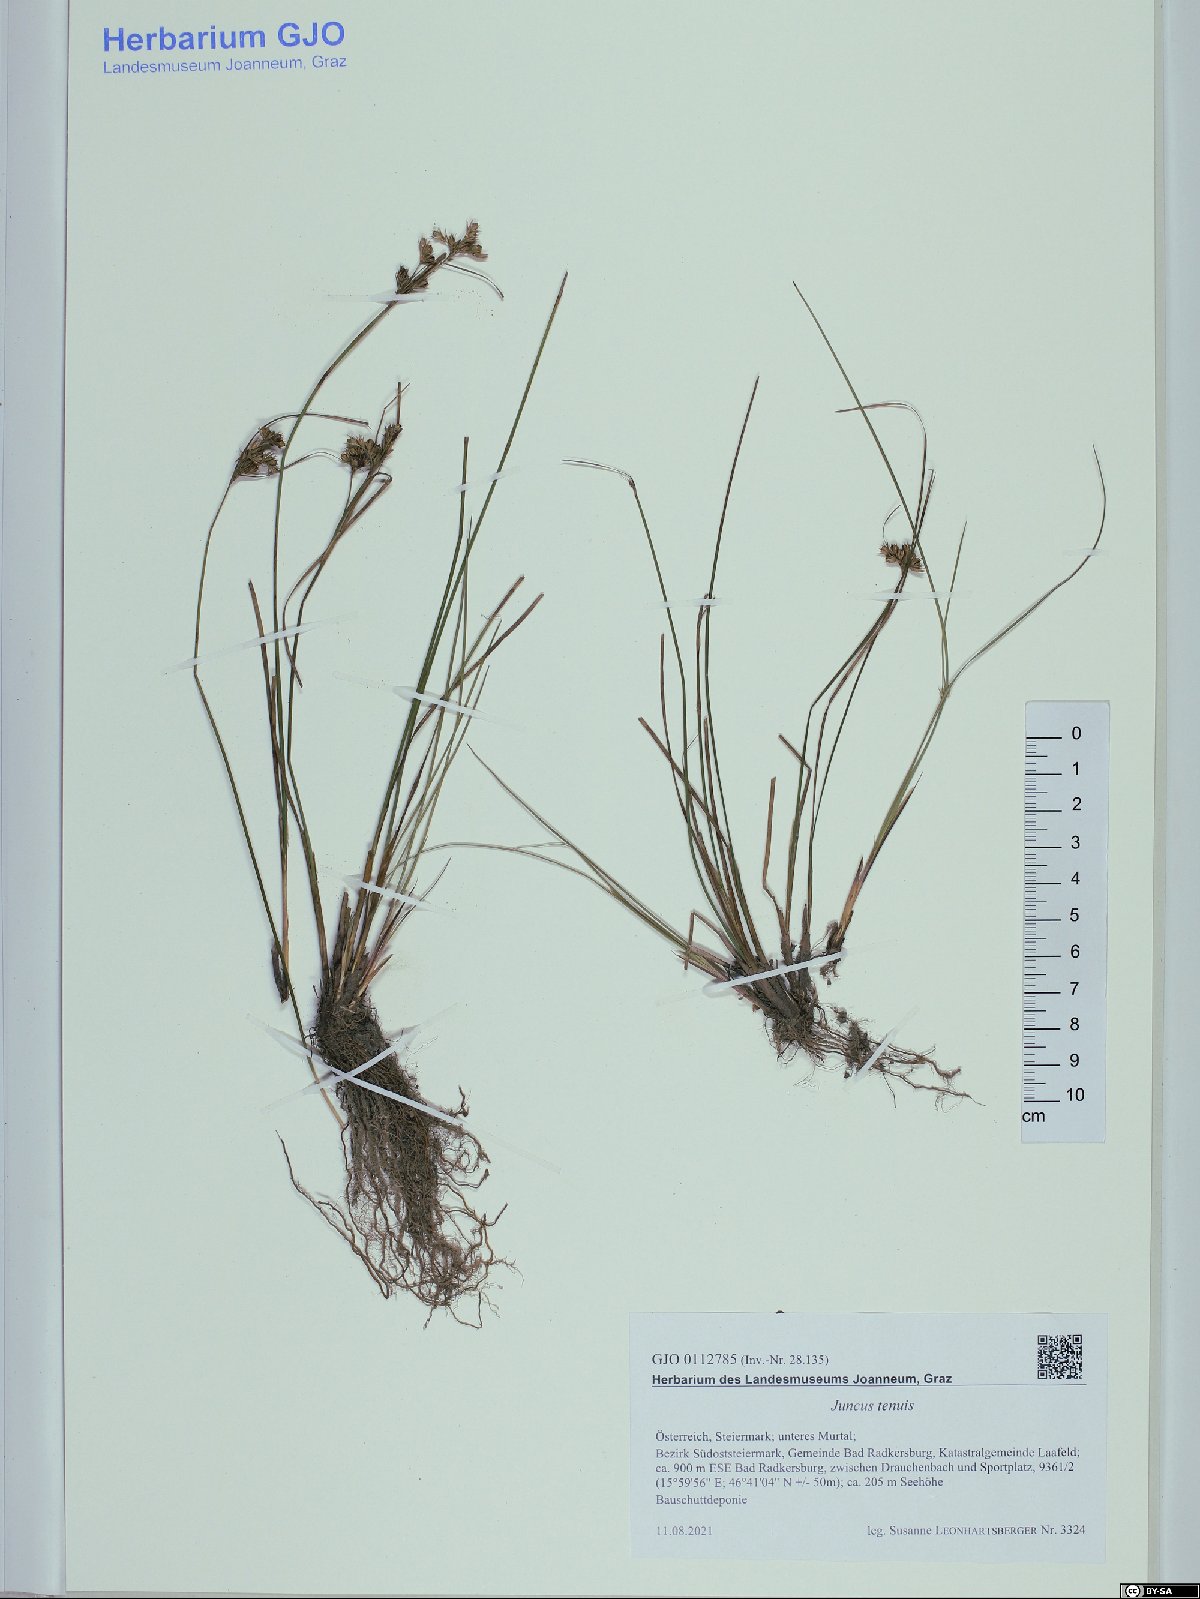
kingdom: Plantae
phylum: Tracheophyta
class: Liliopsida
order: Poales
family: Juncaceae
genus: Juncus
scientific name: Juncus tenuis
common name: Slender rush
